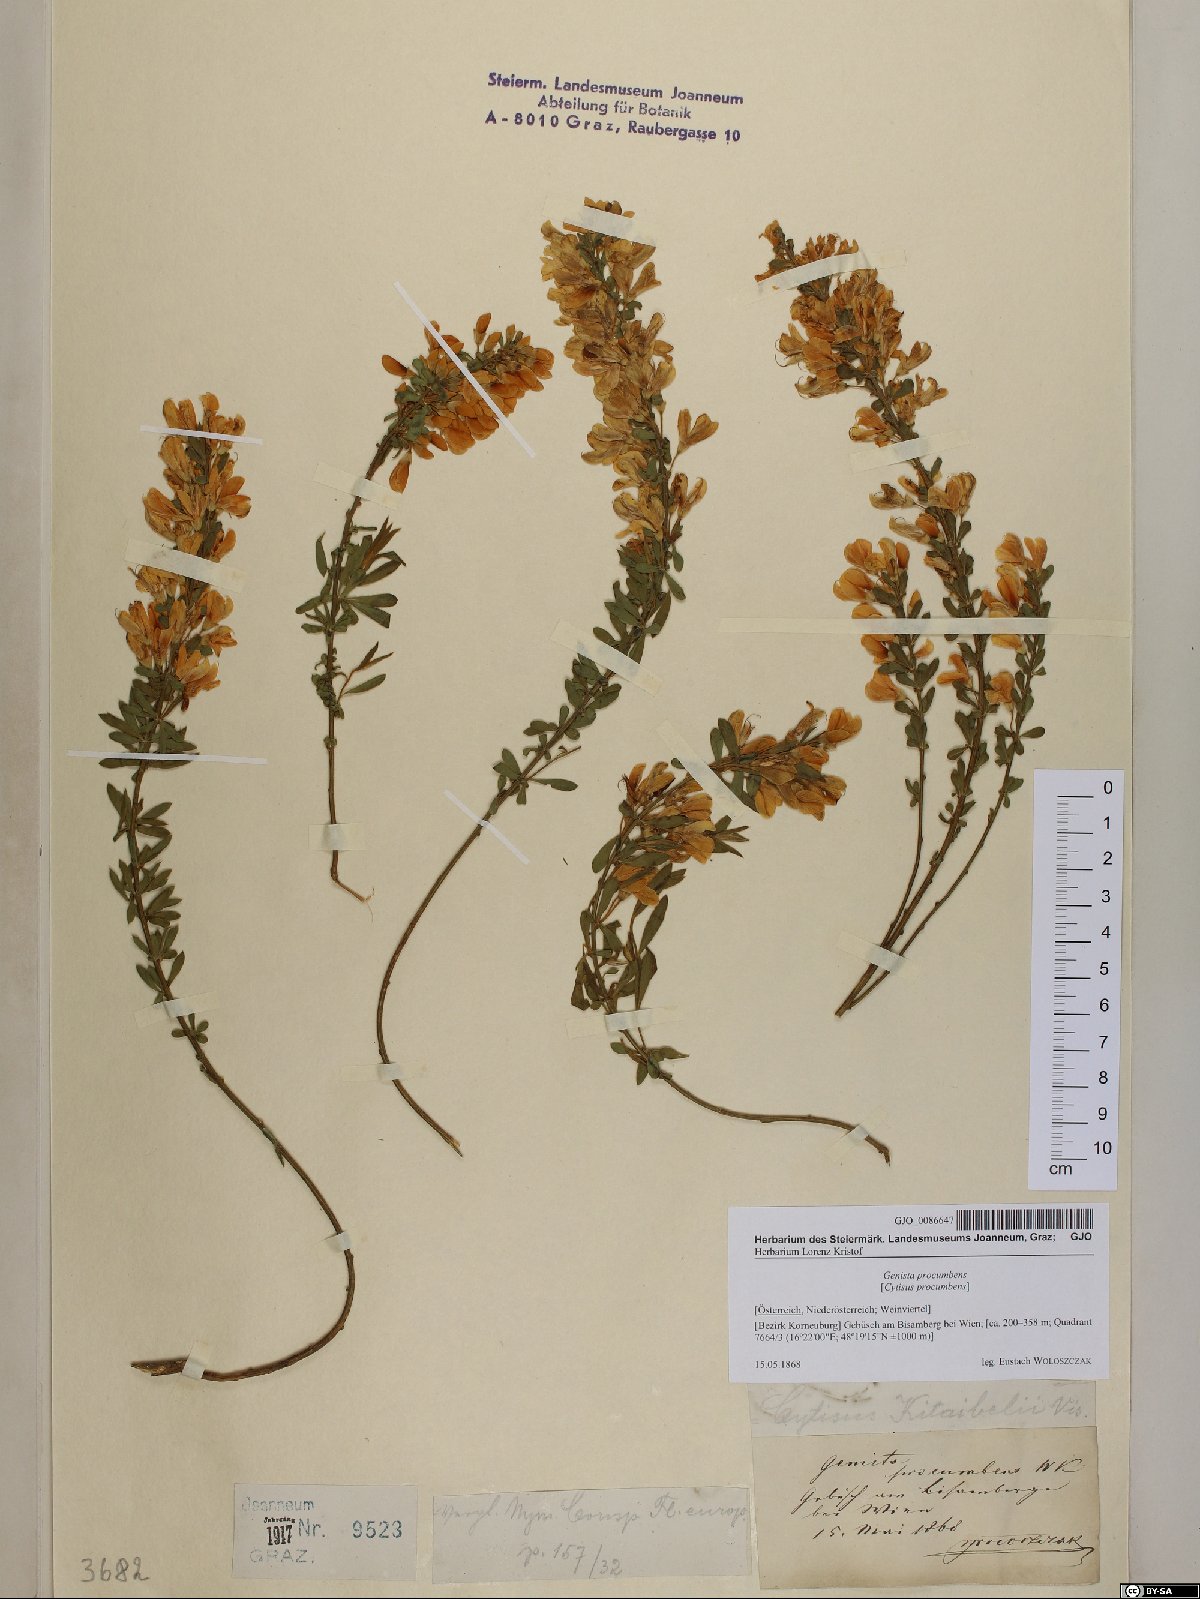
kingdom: Plantae
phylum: Tracheophyta
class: Magnoliopsida
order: Fabales
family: Fabaceae
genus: Cytisus
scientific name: Cytisus procumbens
